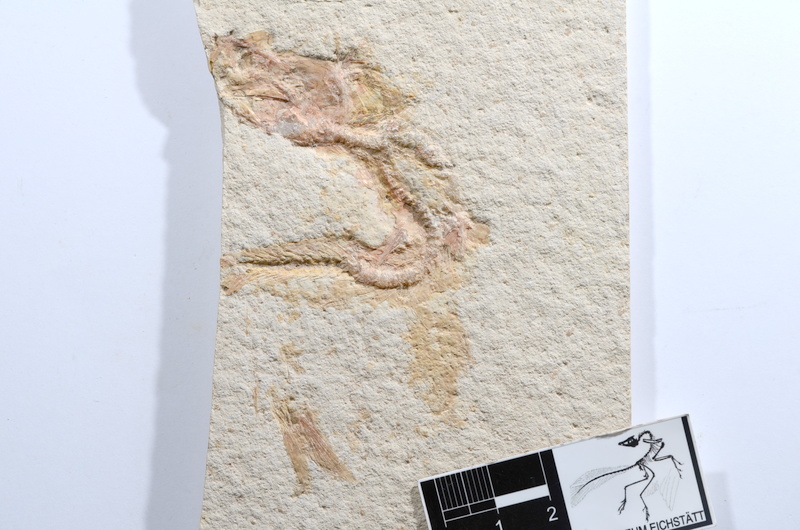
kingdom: Animalia
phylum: Chordata
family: Ascalaboidae
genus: Tharsis
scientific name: Tharsis dubius
